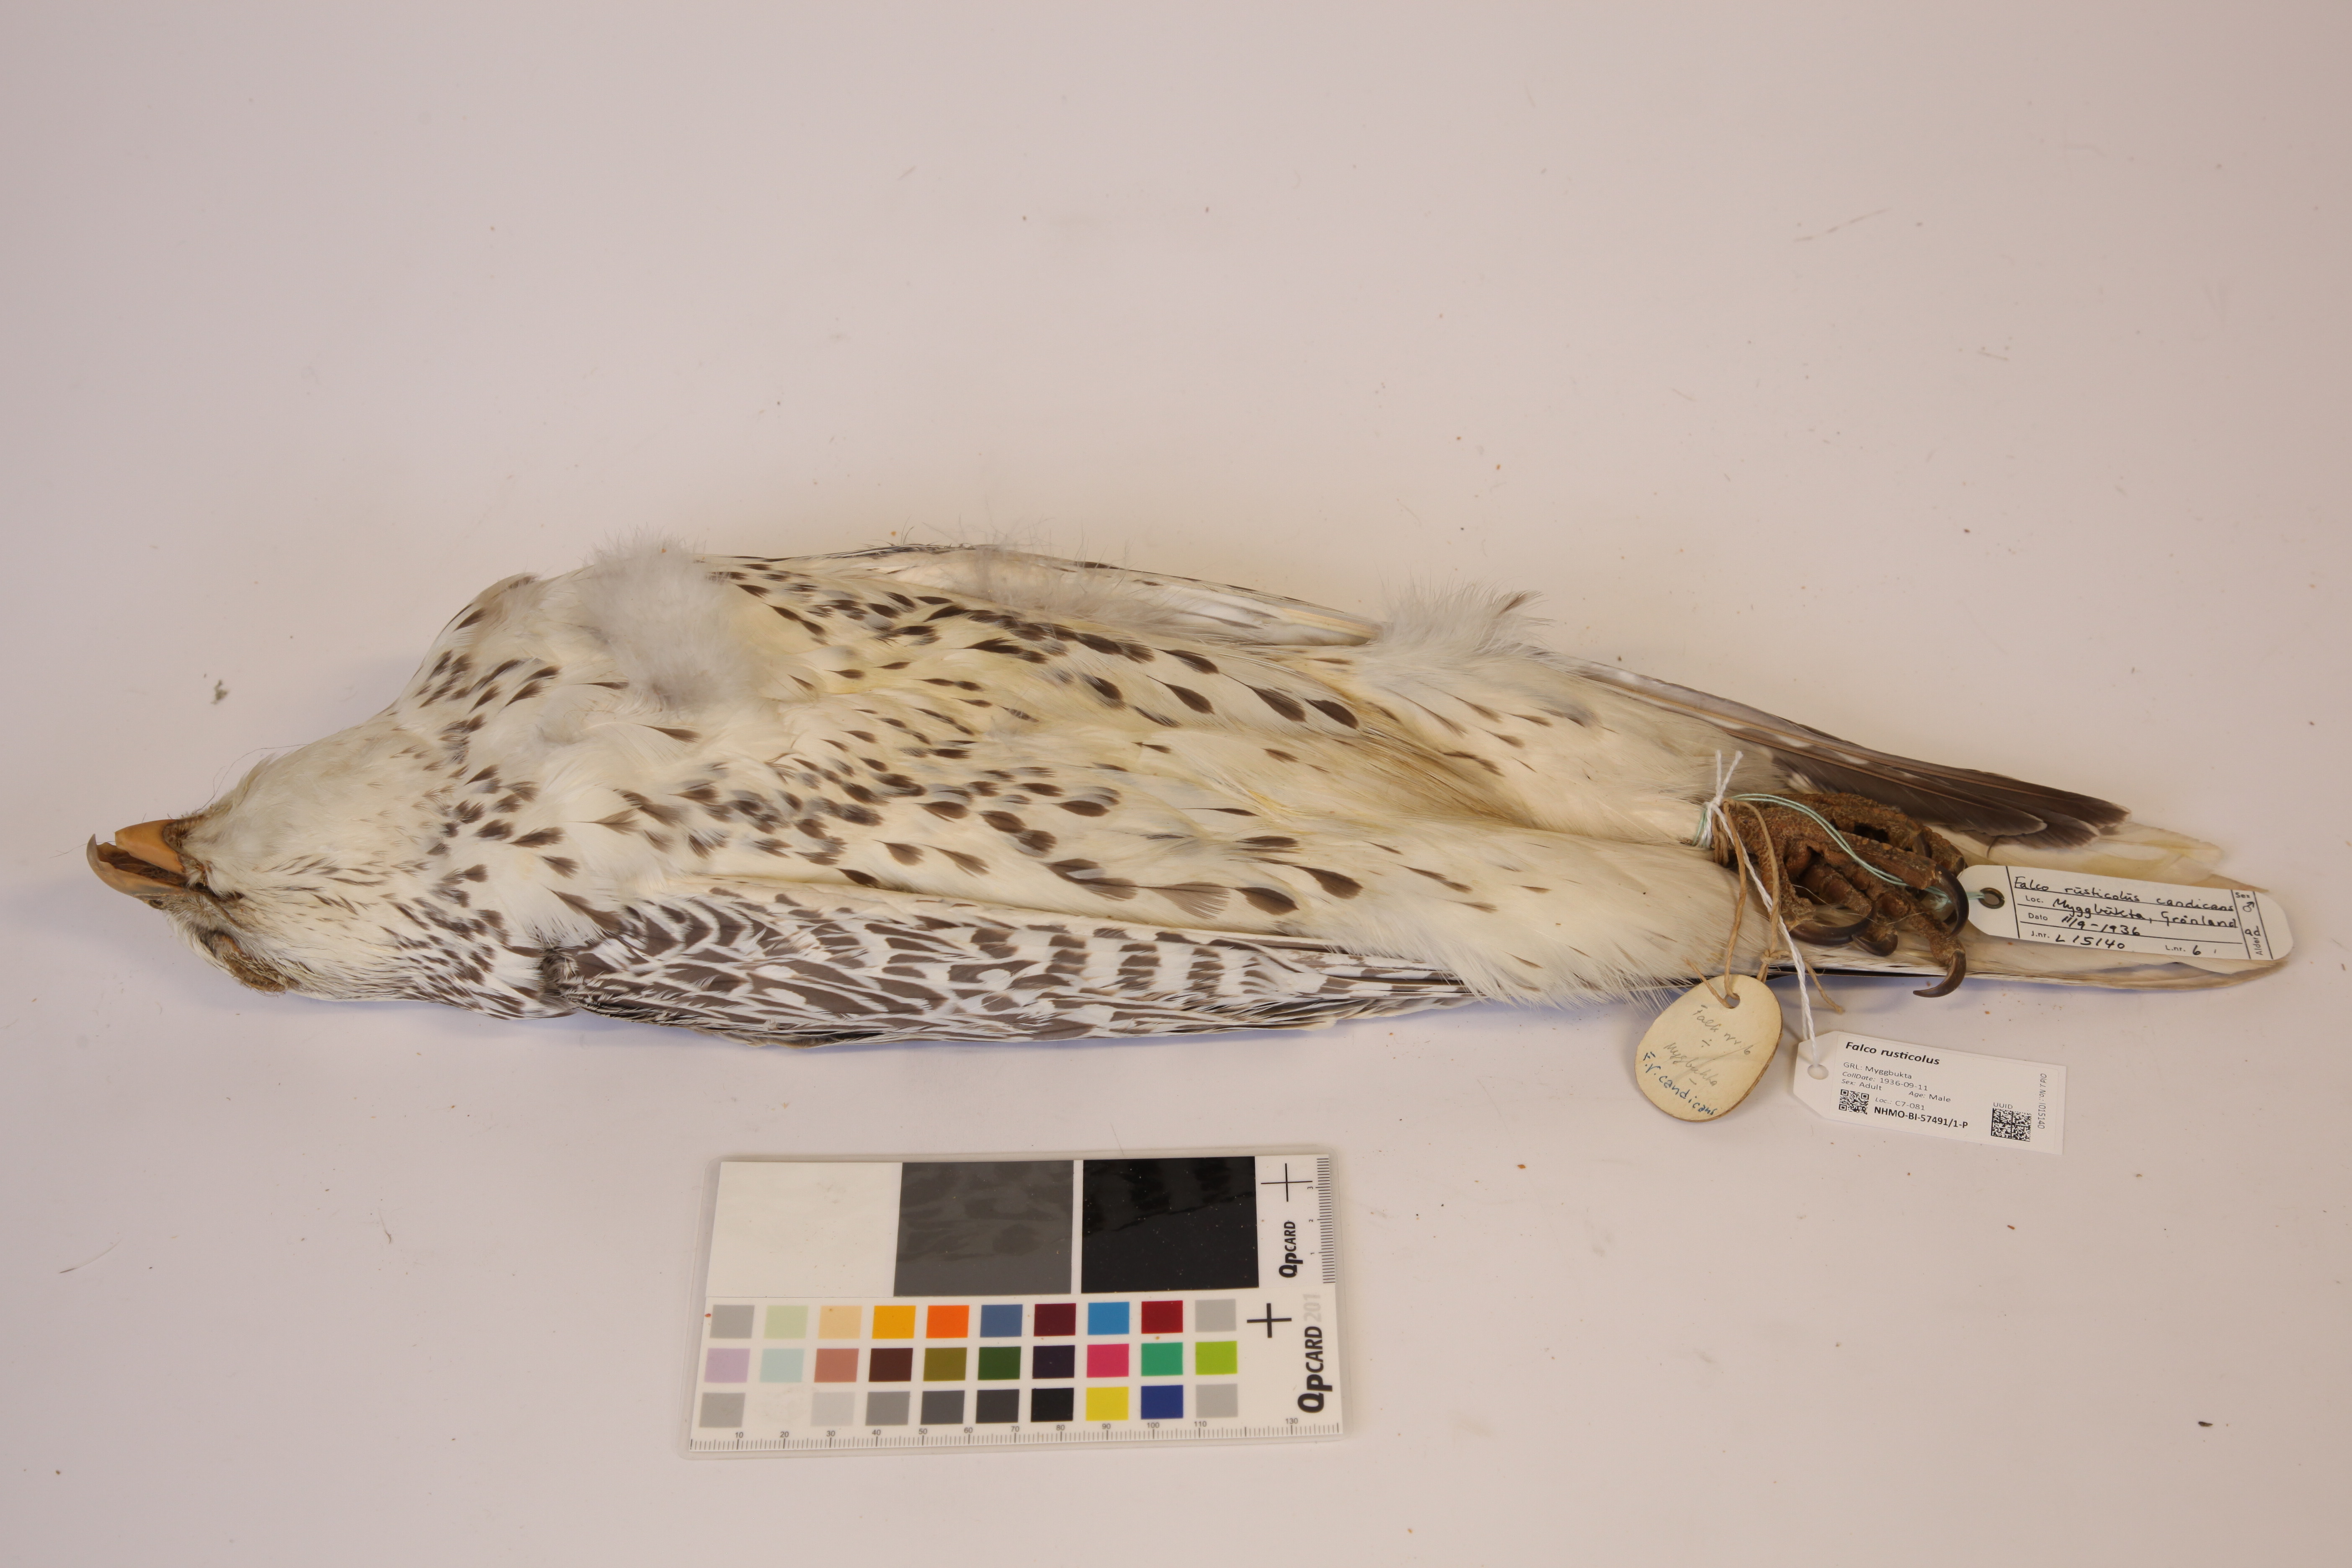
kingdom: Animalia
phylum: Chordata
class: Aves
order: Falconiformes
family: Falconidae
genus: Falco
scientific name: Falco rusticolus
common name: Gyrfalcon
